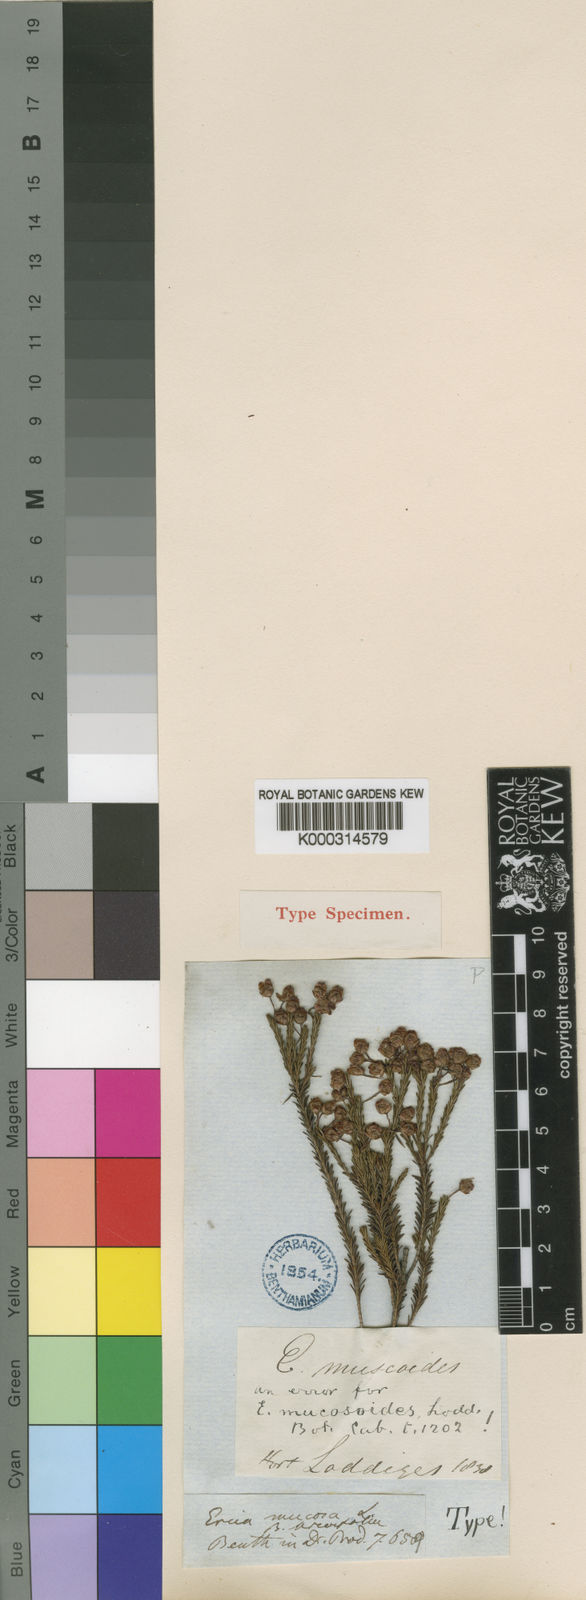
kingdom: Plantae
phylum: Tracheophyta
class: Magnoliopsida
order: Ericales
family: Ericaceae
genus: Erica
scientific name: Erica ferrea
